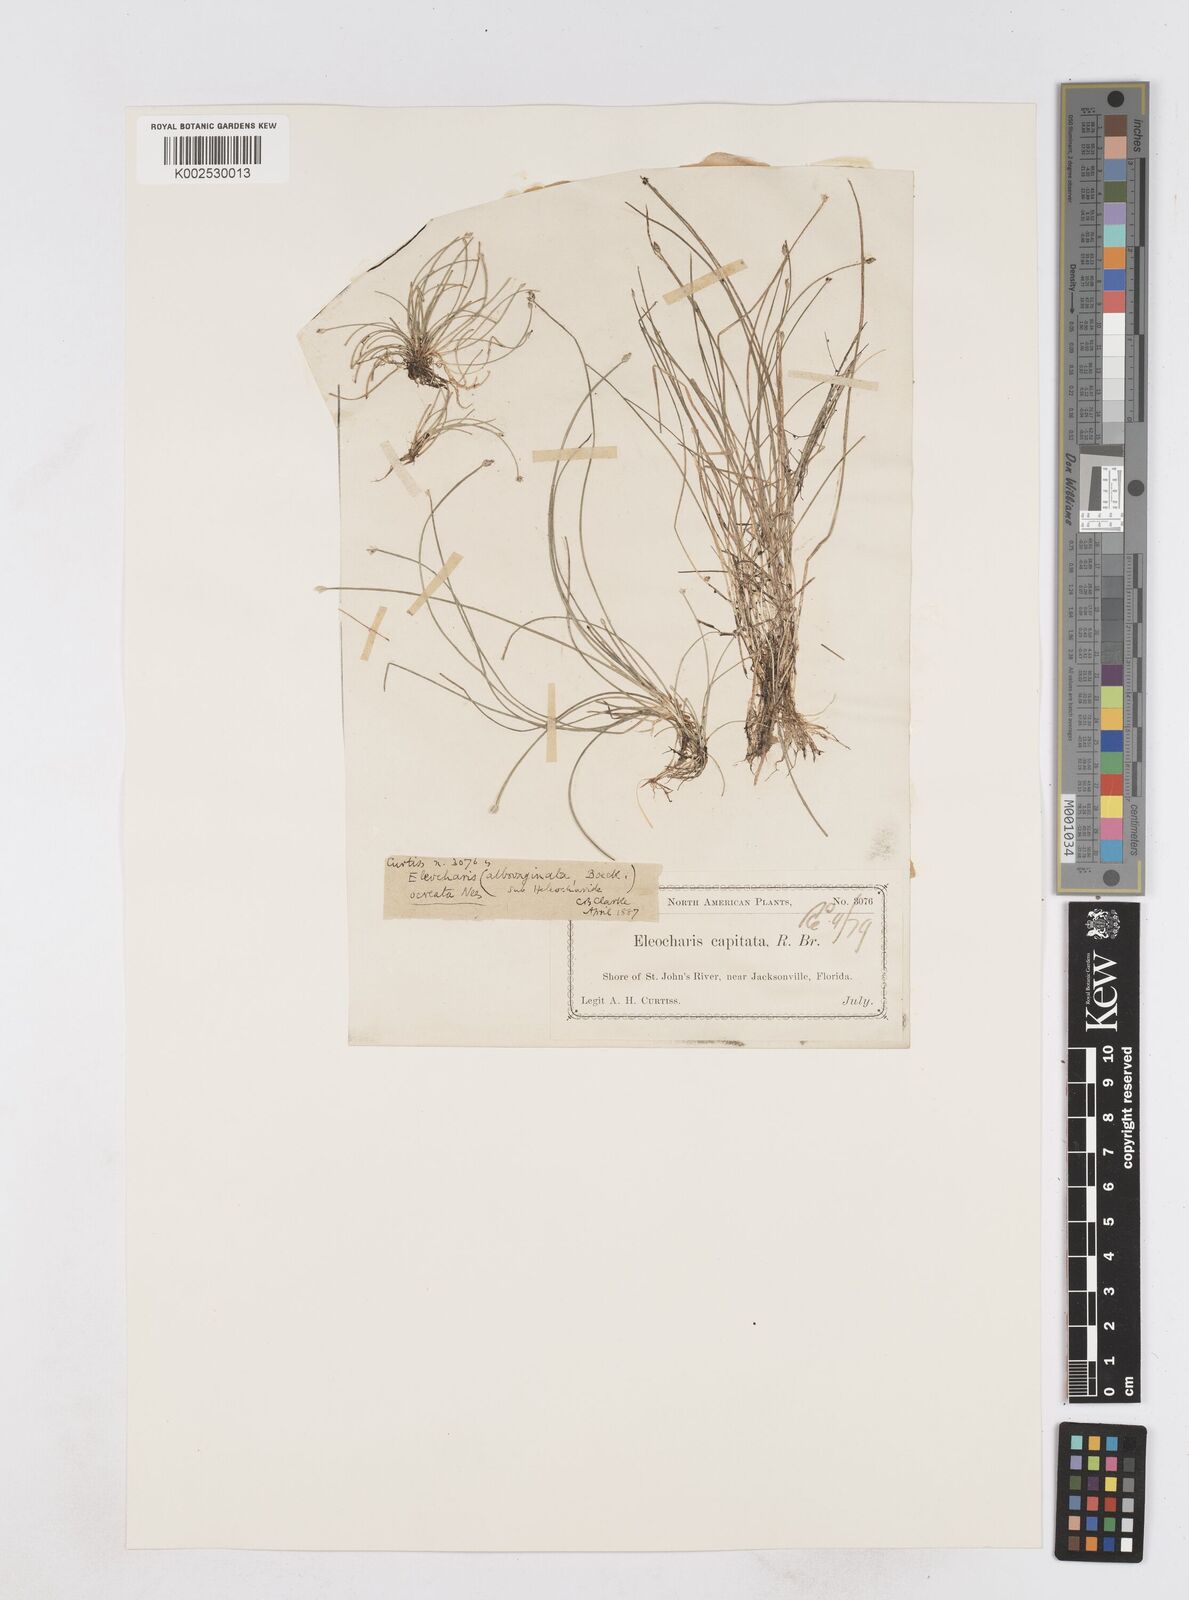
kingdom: Plantae
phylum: Tracheophyta
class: Liliopsida
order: Poales
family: Cyperaceae
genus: Eleocharis
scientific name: Eleocharis geniculata
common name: Canada spikesedge
